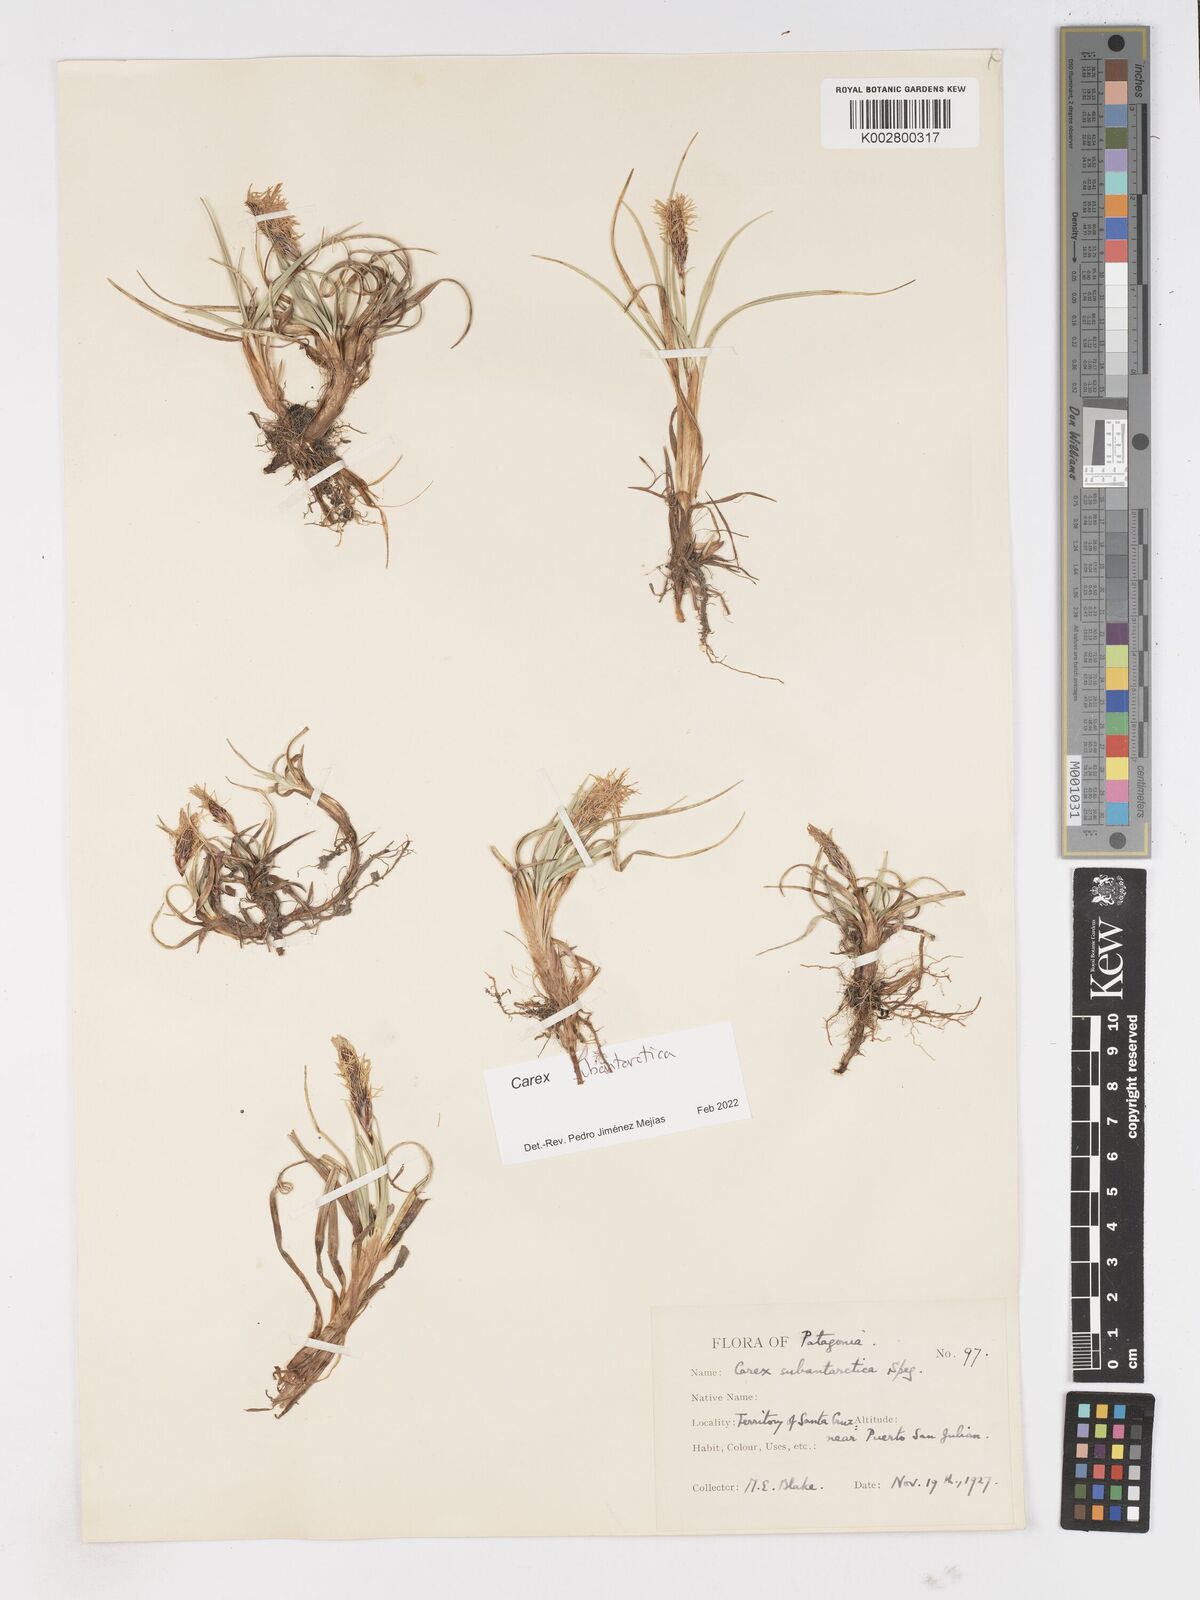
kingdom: Plantae
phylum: Tracheophyta
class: Liliopsida
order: Poales
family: Cyperaceae
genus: Carex
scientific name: Carex subantarctica
